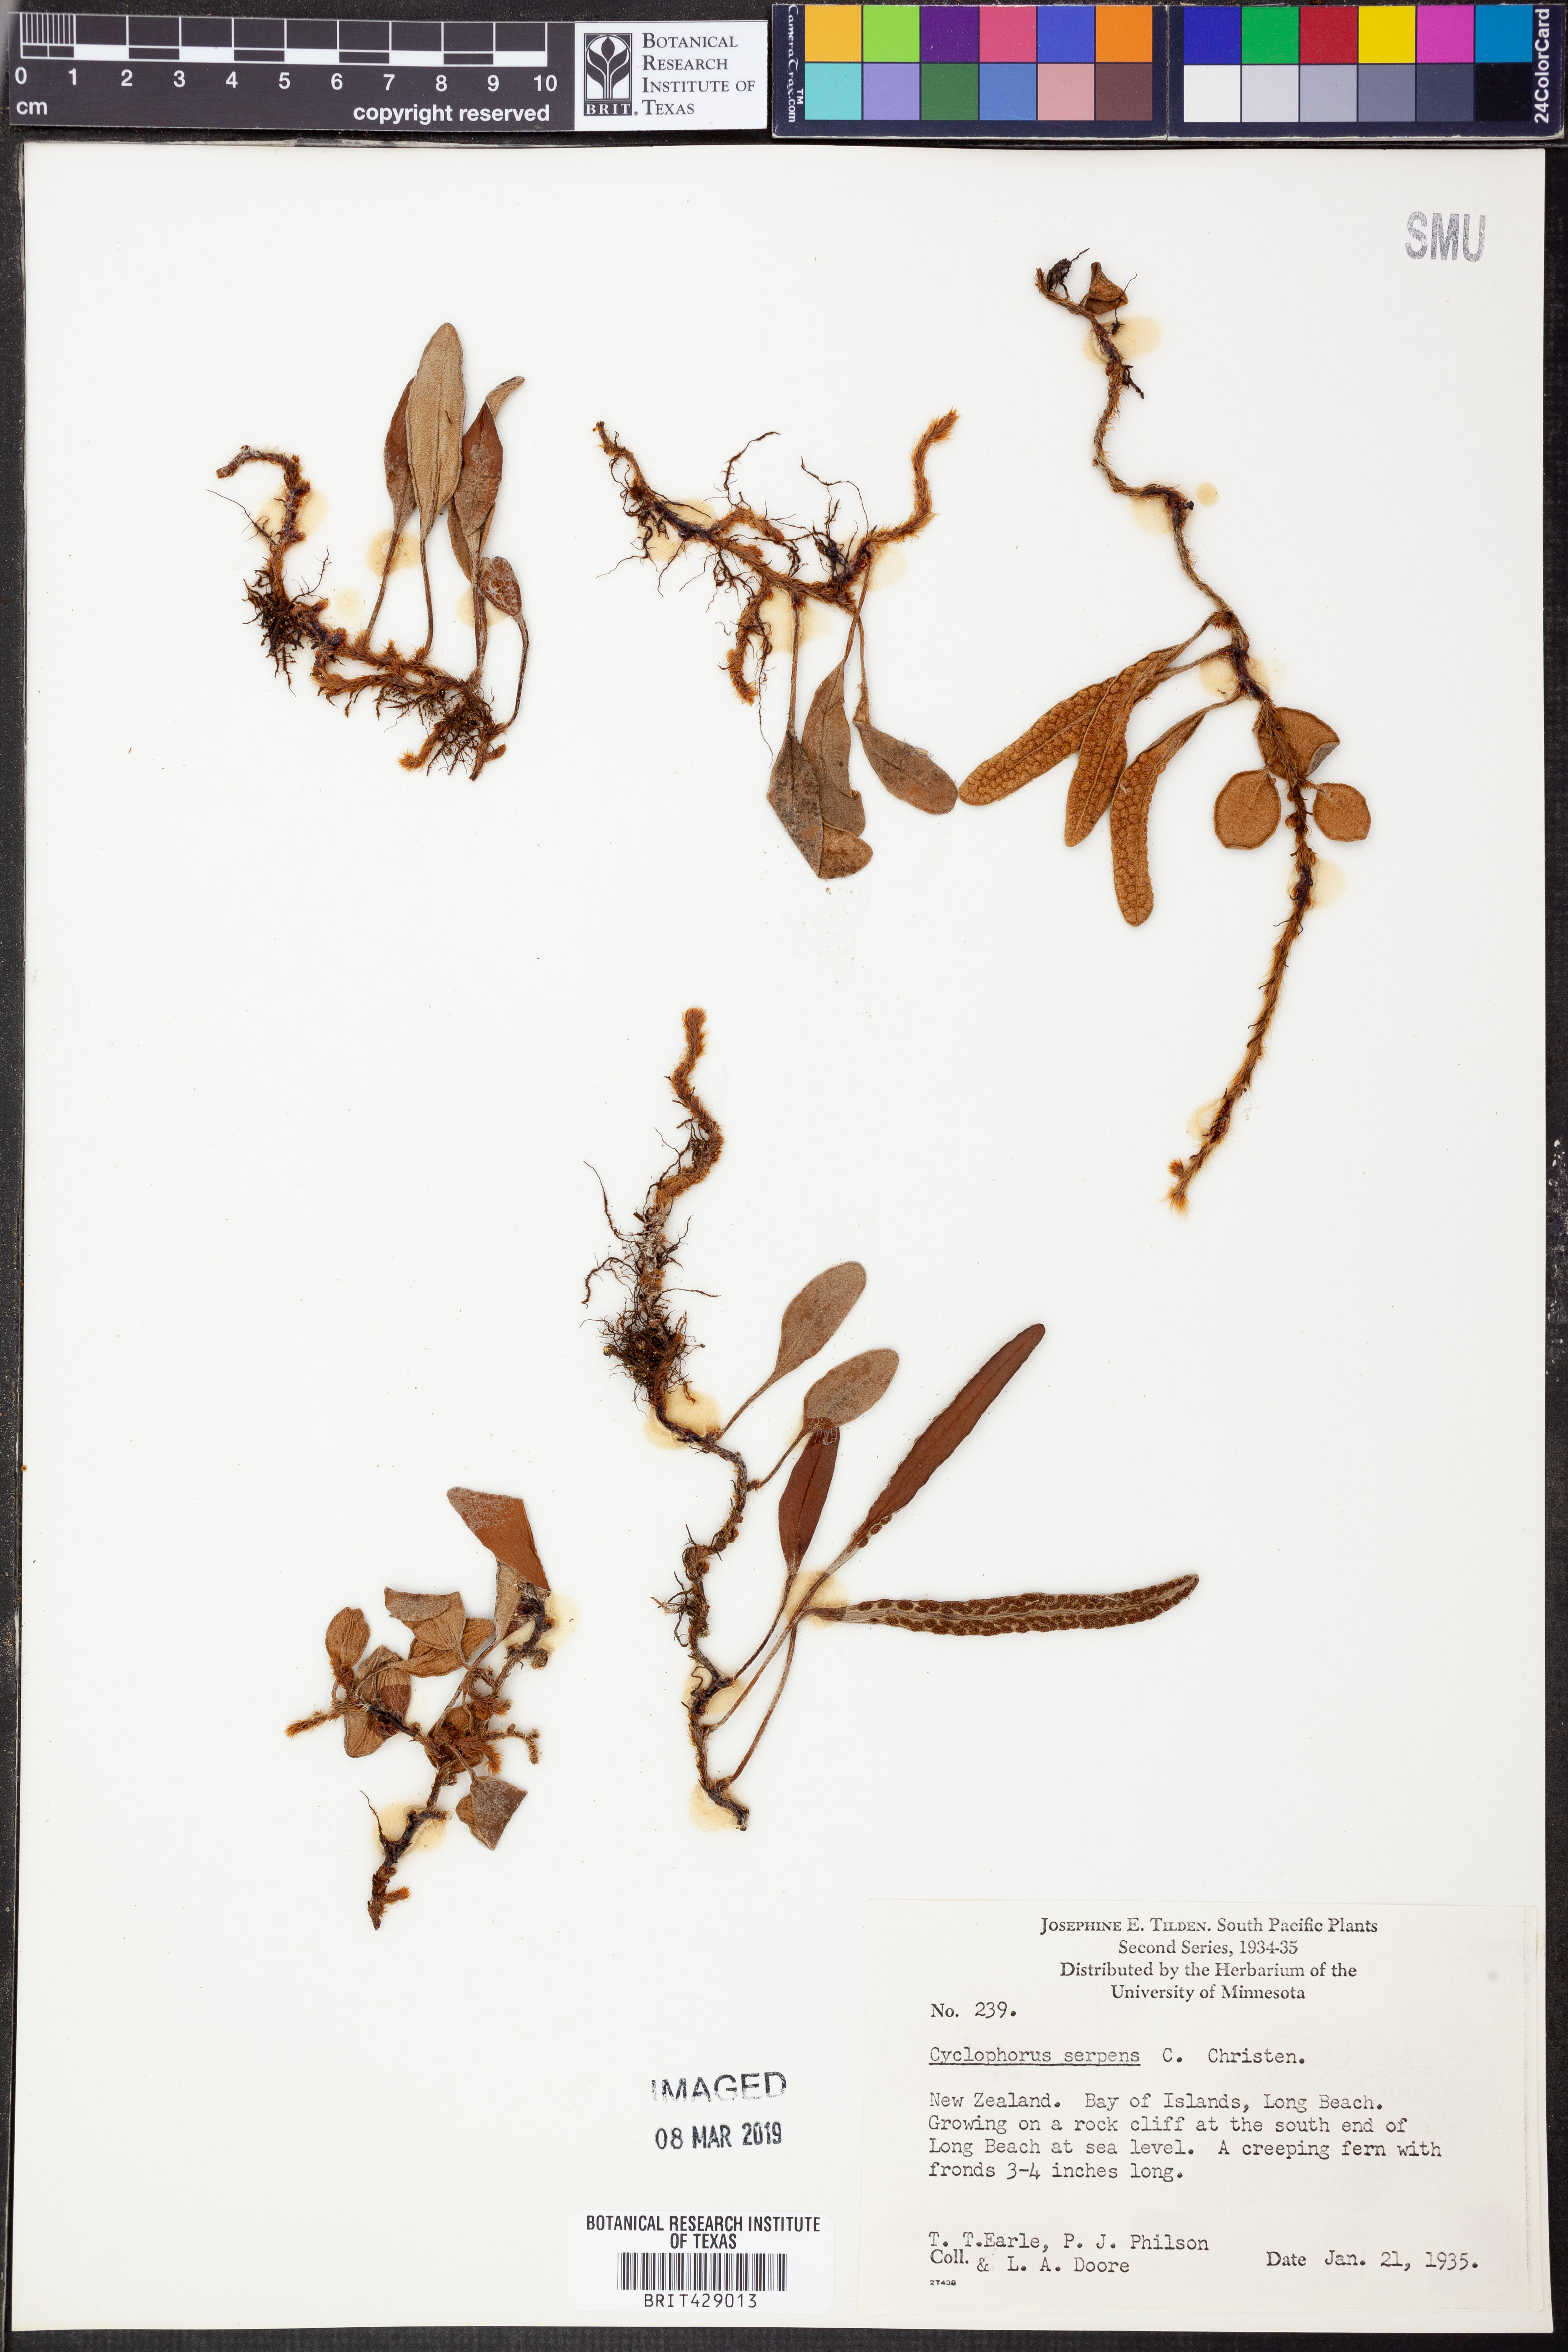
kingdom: Plantae
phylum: Tracheophyta
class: Polypodiopsida
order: Polypodiales
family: Polypodiaceae
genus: Pyrrosia
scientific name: Pyrrosia serpens
